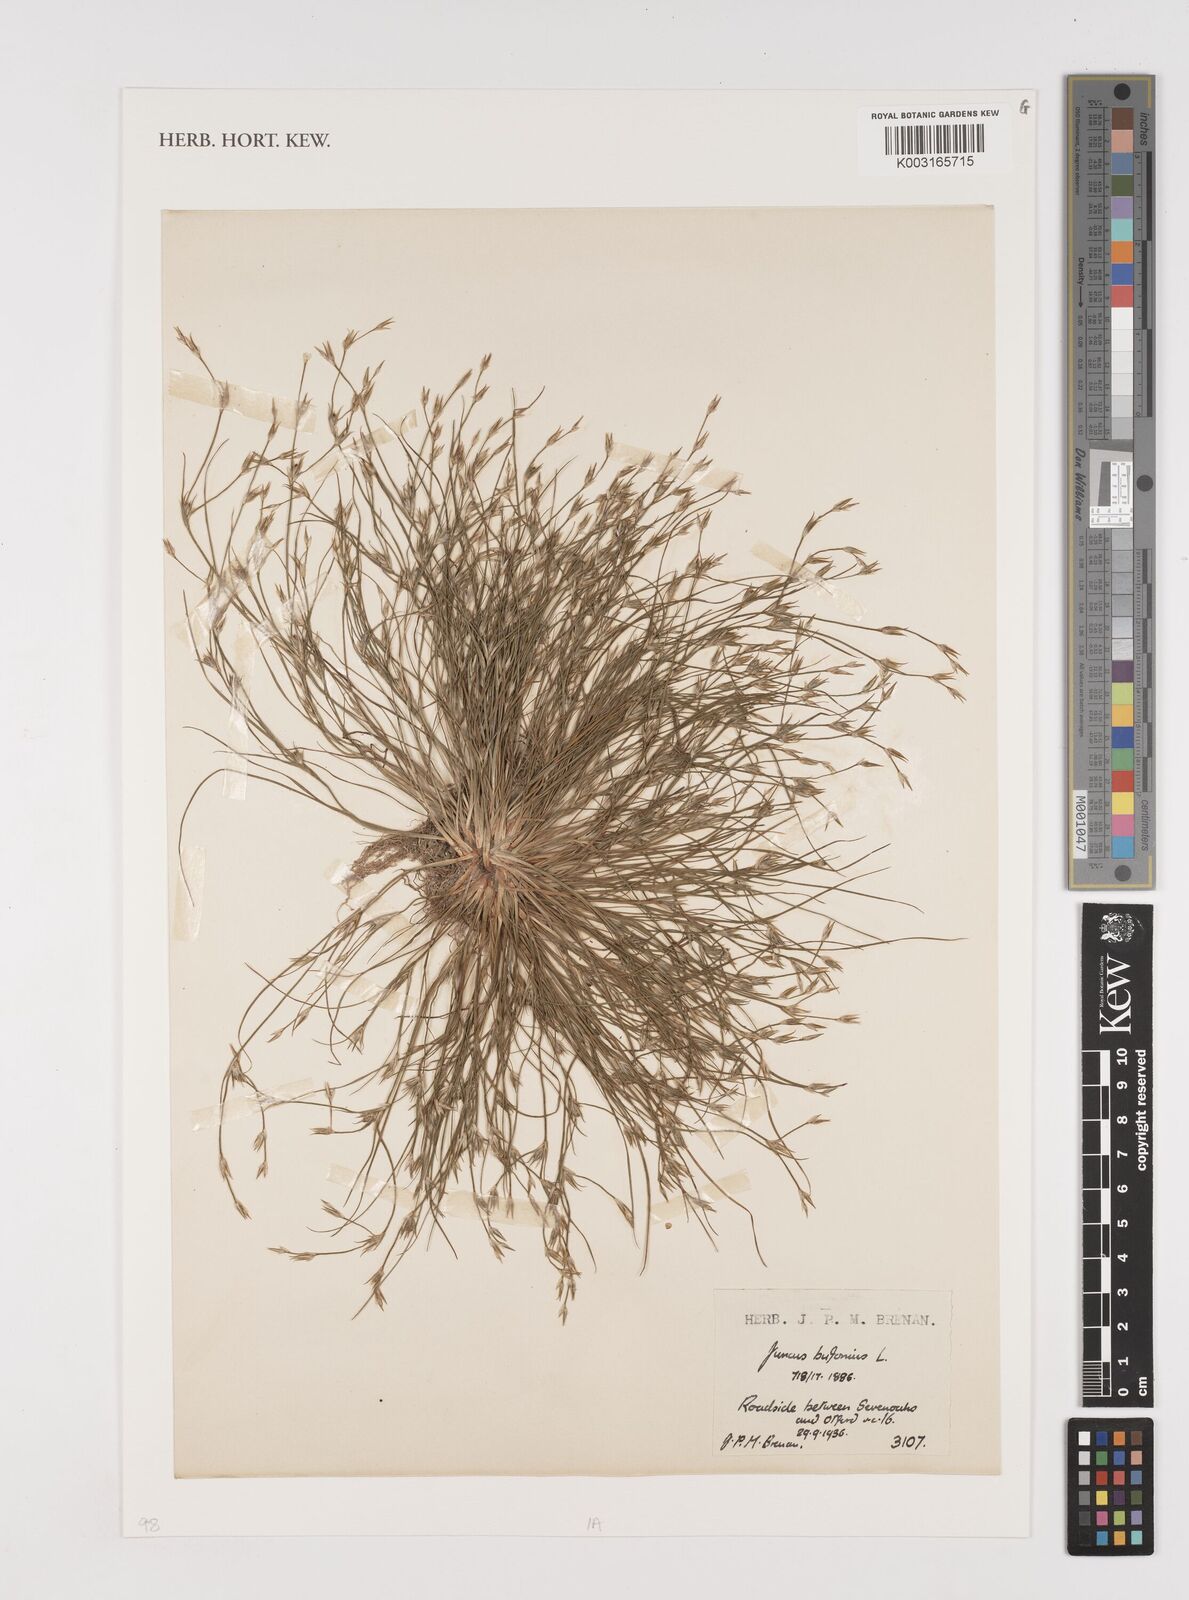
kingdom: Plantae
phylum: Tracheophyta
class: Liliopsida
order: Poales
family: Juncaceae
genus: Juncus
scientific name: Juncus bufonius
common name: Toad rush
